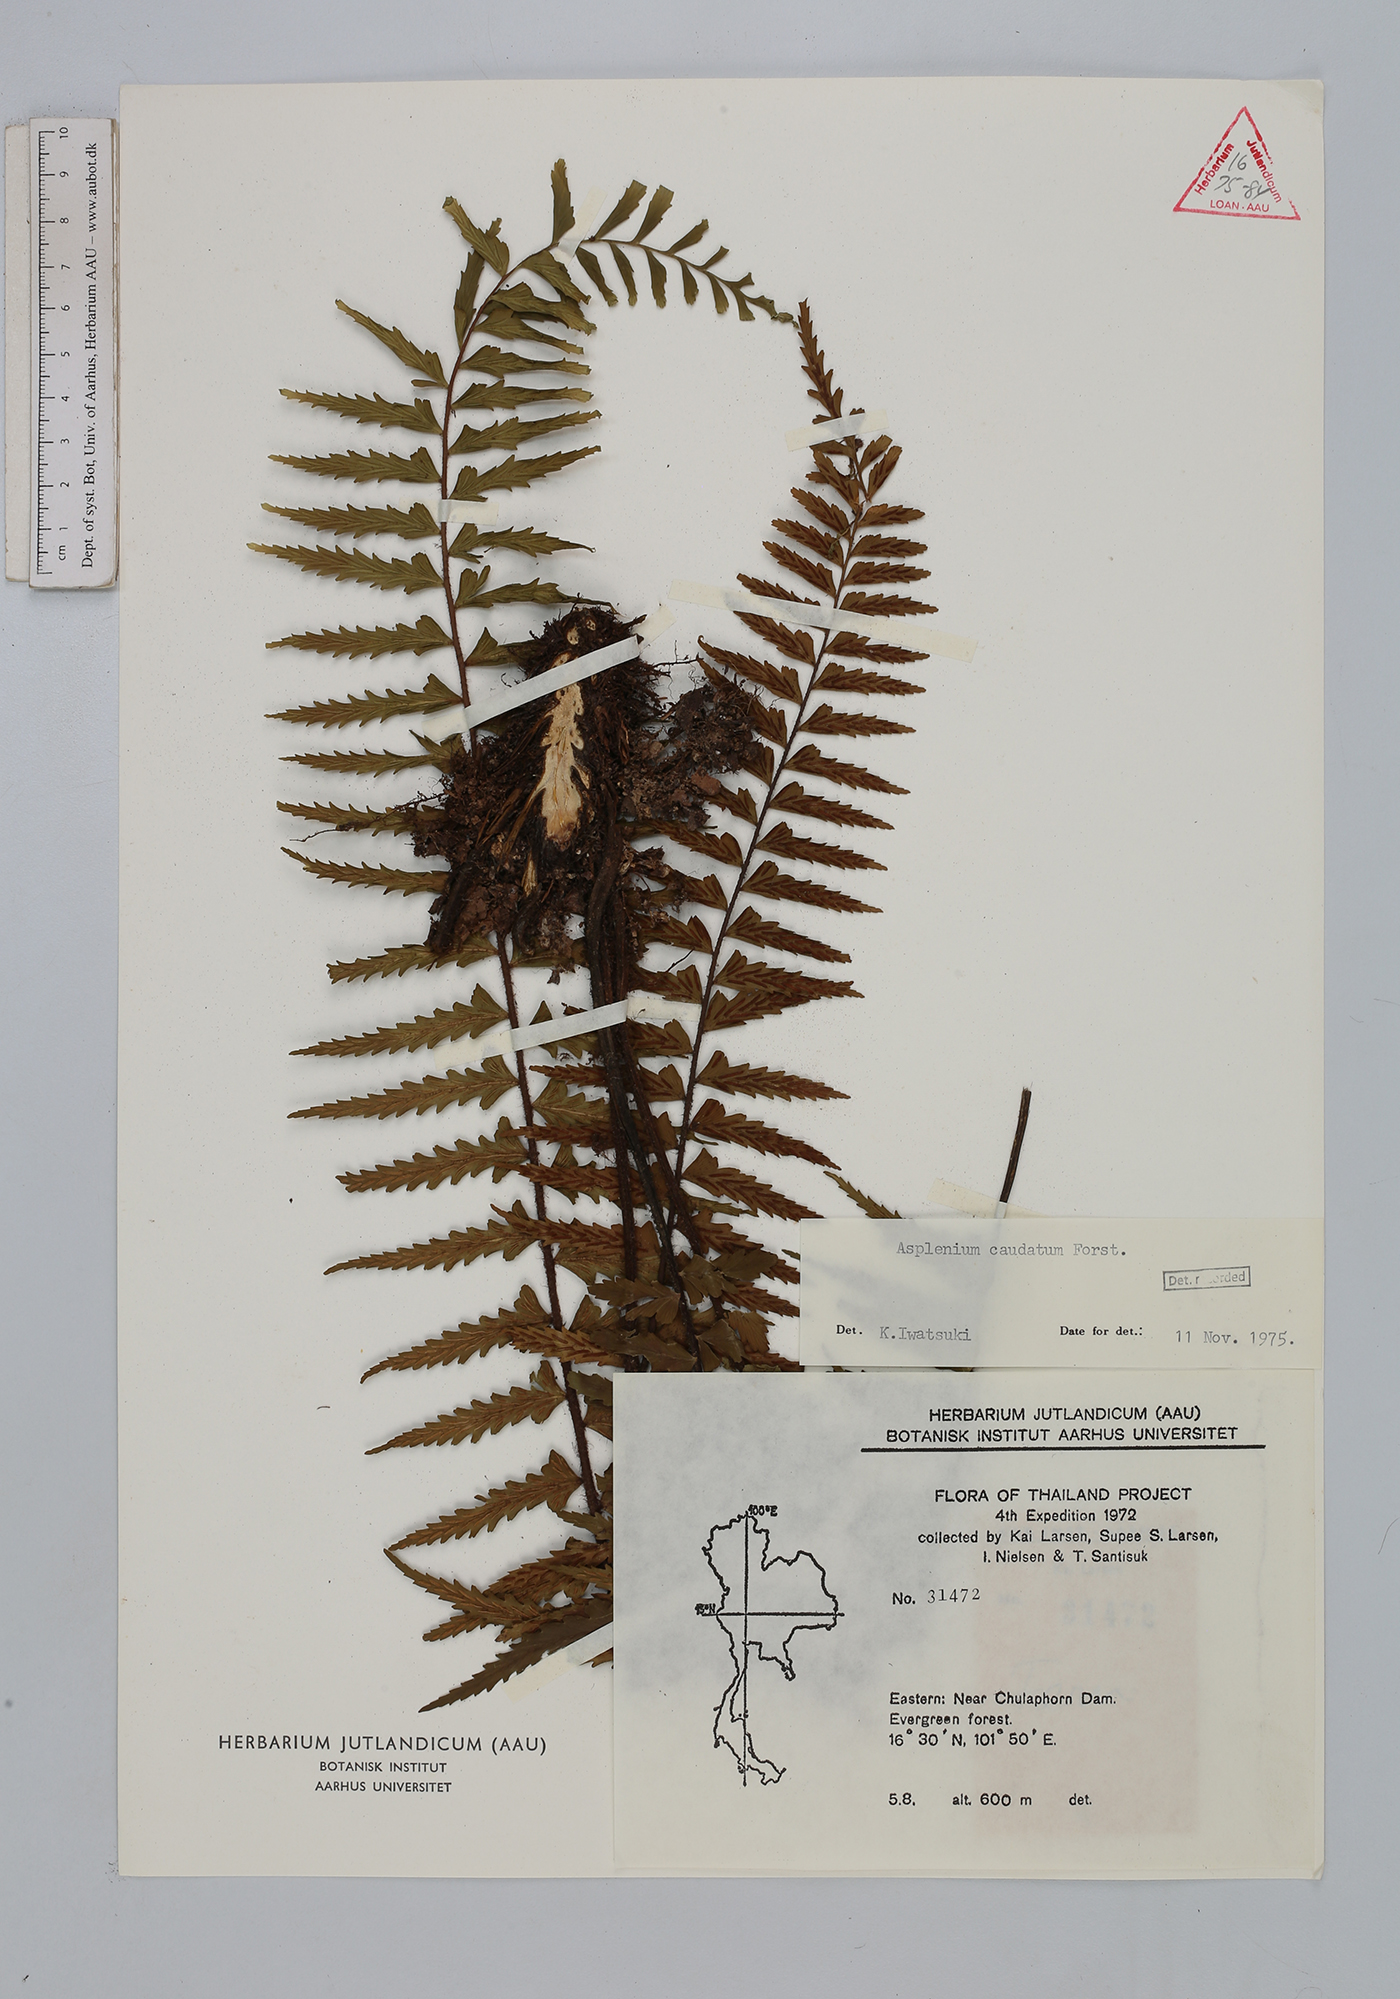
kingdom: Plantae
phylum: Tracheophyta
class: Polypodiopsida
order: Polypodiales
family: Aspleniaceae
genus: Asplenium
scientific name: Asplenium caudatum
